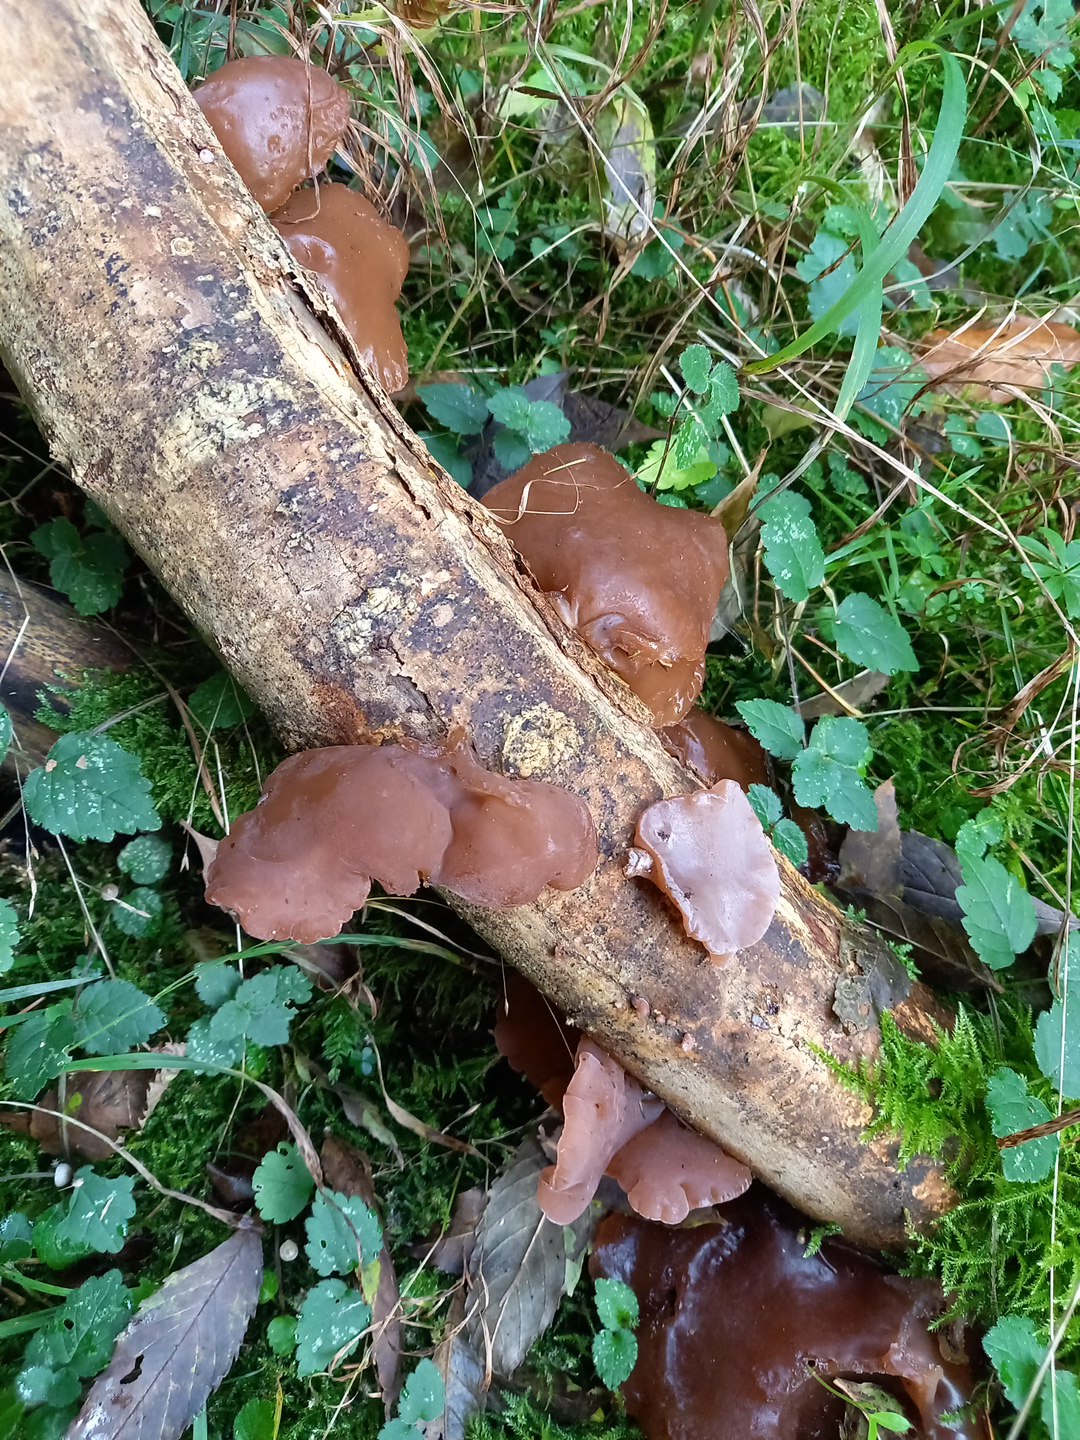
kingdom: Fungi
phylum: Basidiomycota
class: Agaricomycetes
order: Auriculariales
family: Auriculariaceae
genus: Auricularia
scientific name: Auricularia auricula-judae
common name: almindelig judasøre
